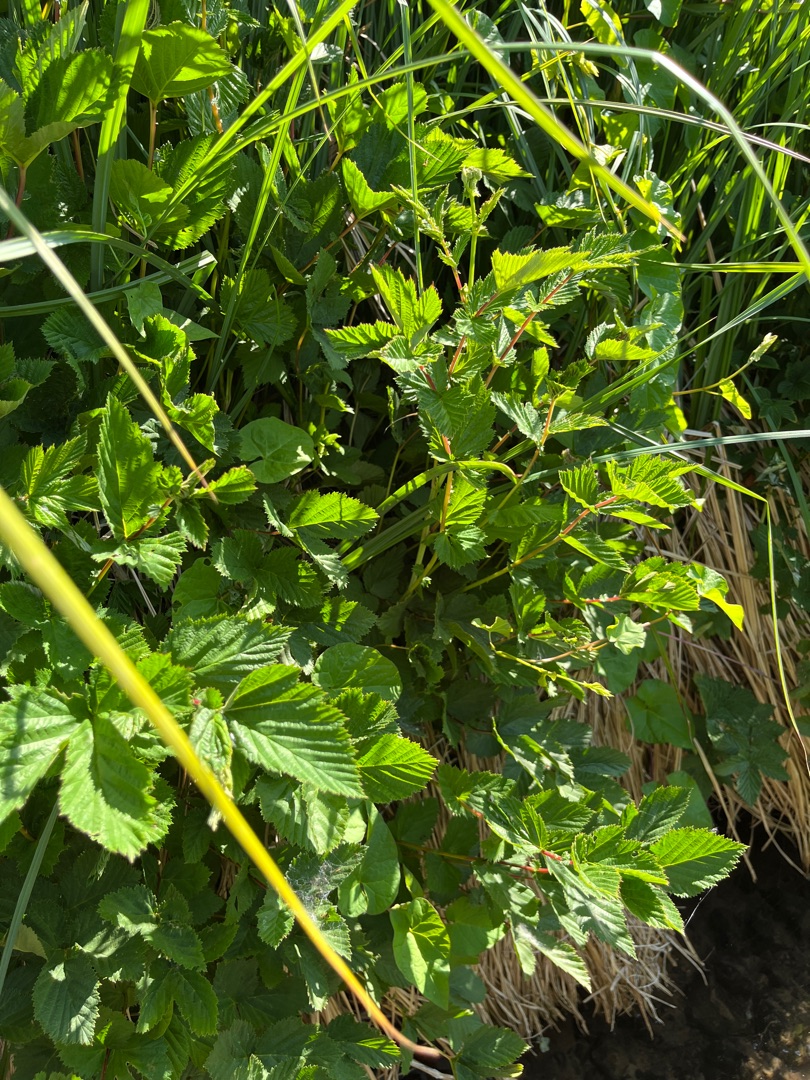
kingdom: Plantae
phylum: Tracheophyta
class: Magnoliopsida
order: Rosales
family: Rosaceae
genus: Filipendula
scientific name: Filipendula ulmaria
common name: Almindelig mjødurt
